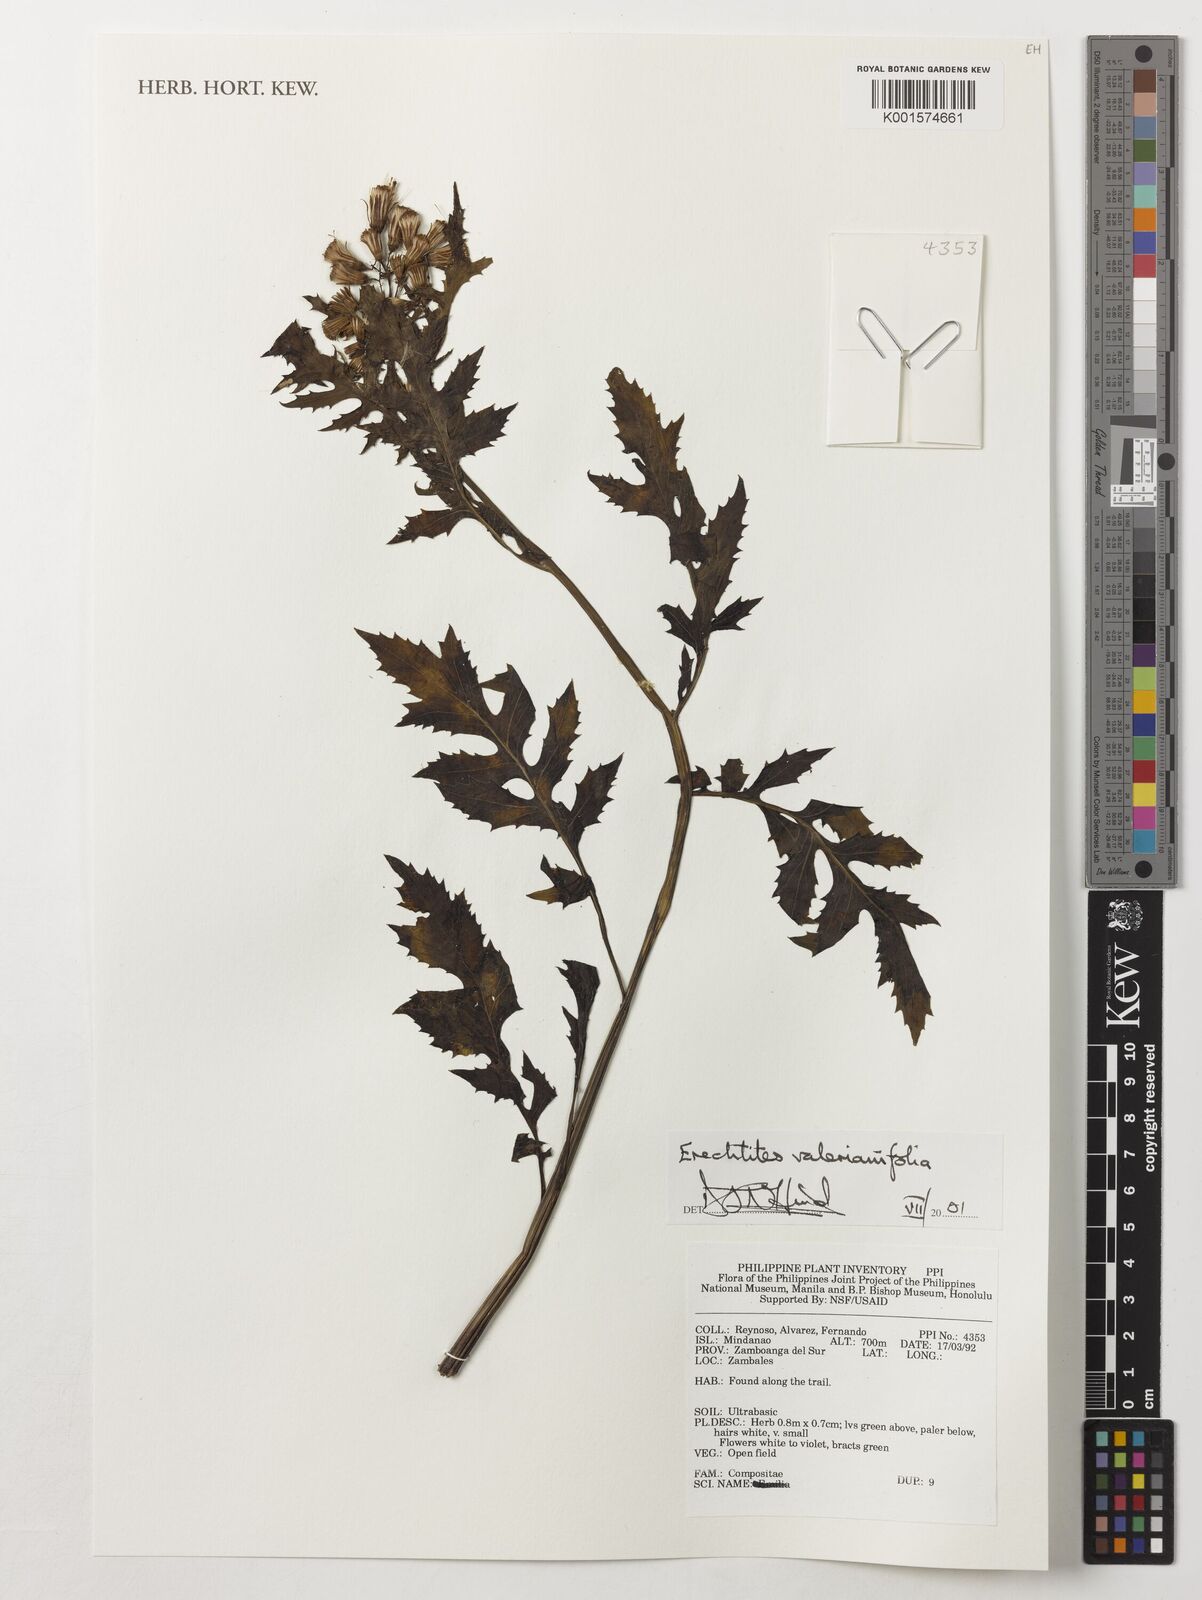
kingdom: Plantae
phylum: Tracheophyta
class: Magnoliopsida
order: Asterales
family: Asteraceae
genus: Erechtites
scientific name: Erechtites valerianifolius
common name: Tropical burnweed
